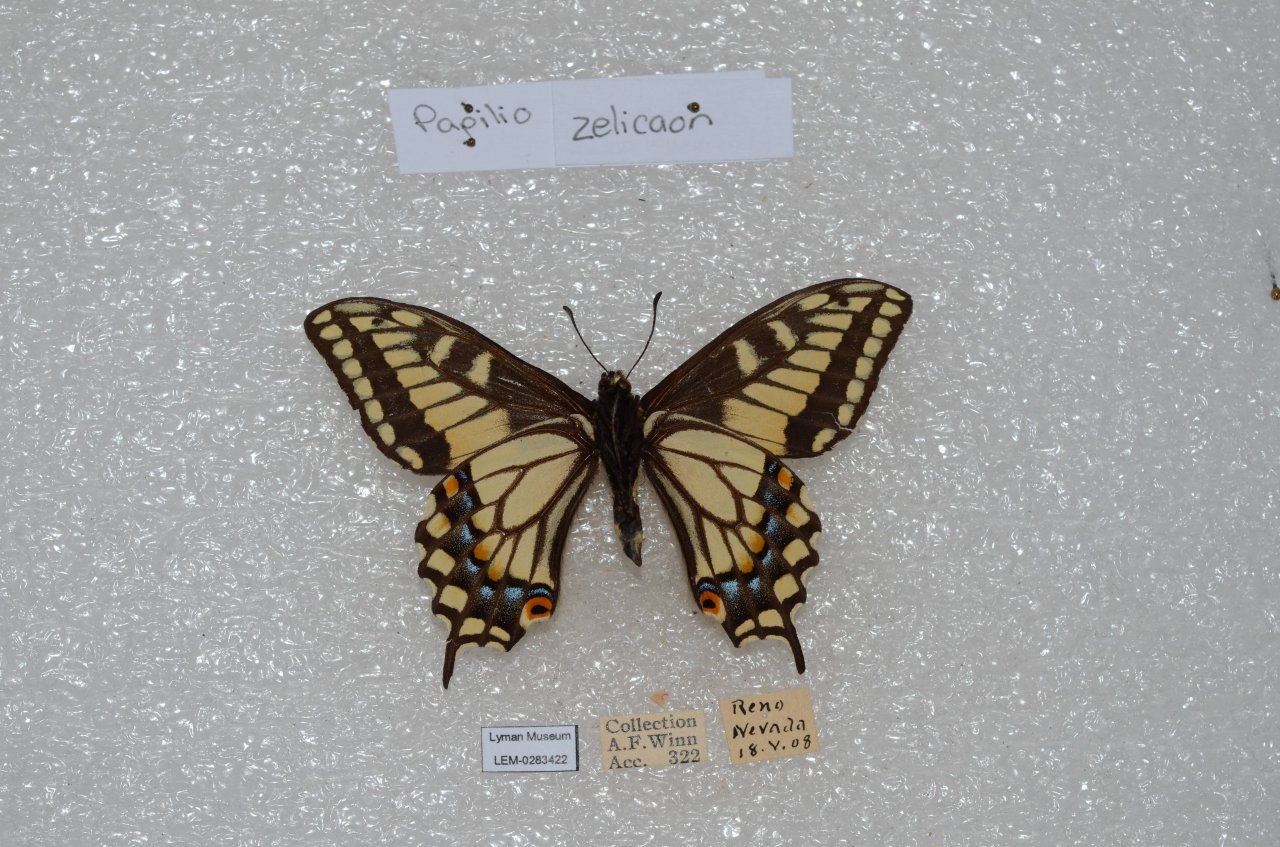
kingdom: Animalia
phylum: Arthropoda
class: Insecta
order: Lepidoptera
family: Papilionidae
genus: Papilio
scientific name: Papilio zelicaon
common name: Anise Swallowtail
